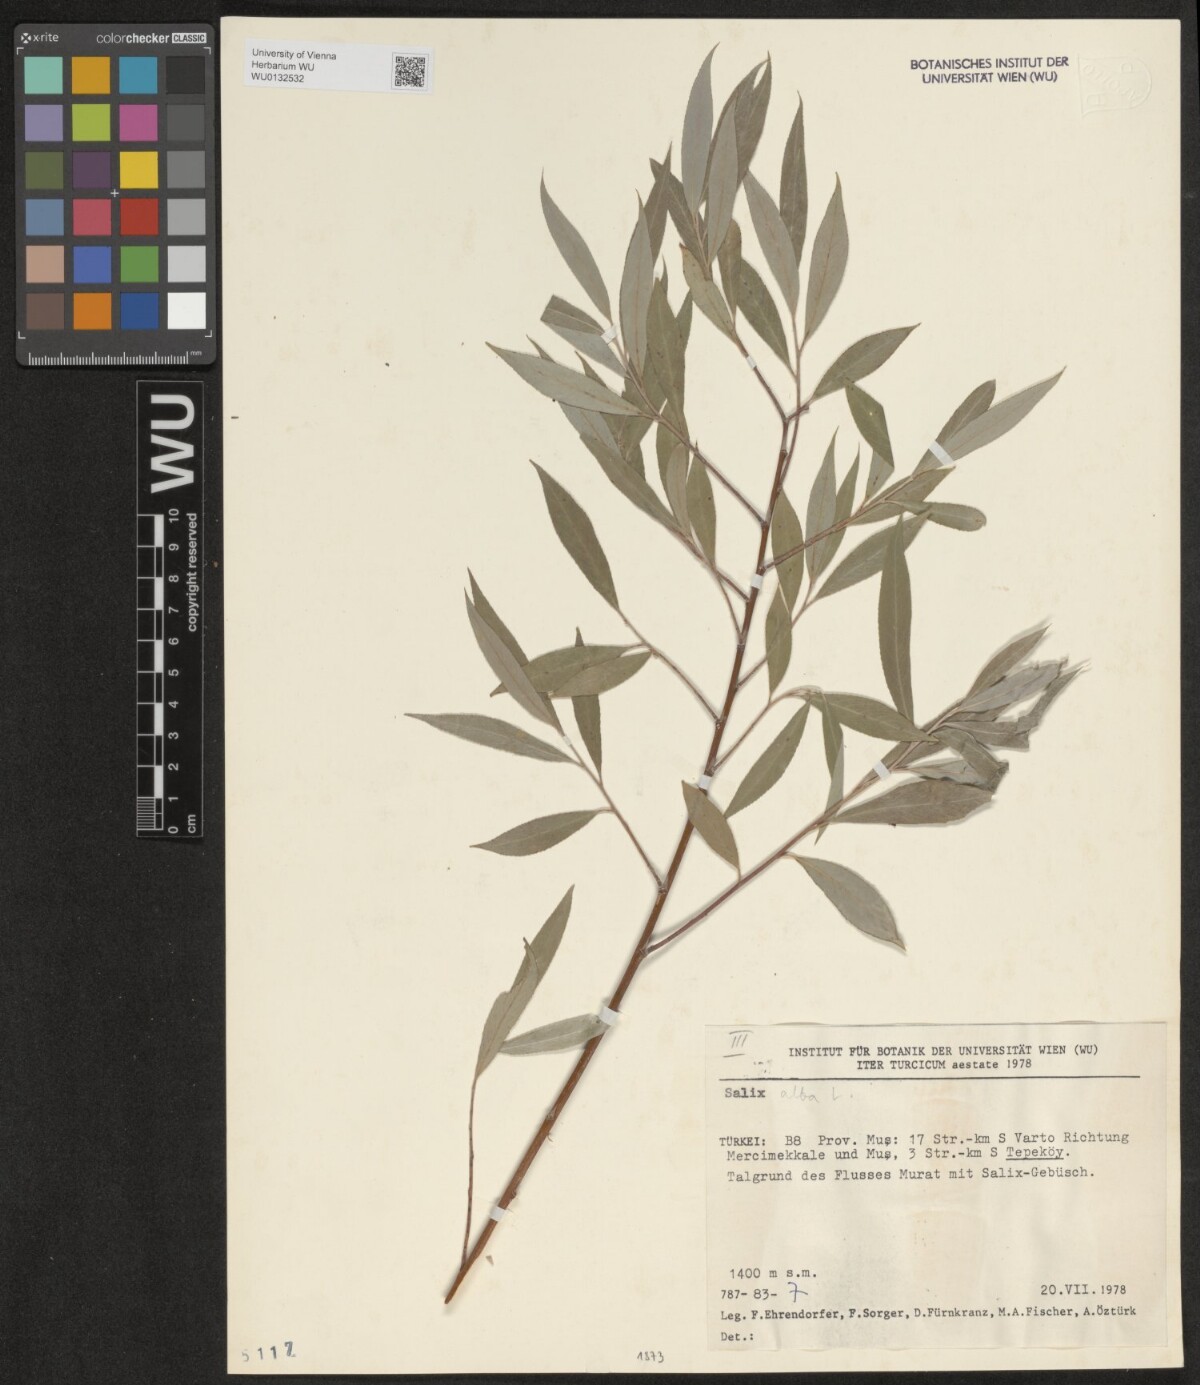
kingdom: Plantae
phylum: Tracheophyta
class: Magnoliopsida
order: Malpighiales
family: Salicaceae
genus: Salix
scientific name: Salix alba
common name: White willow
